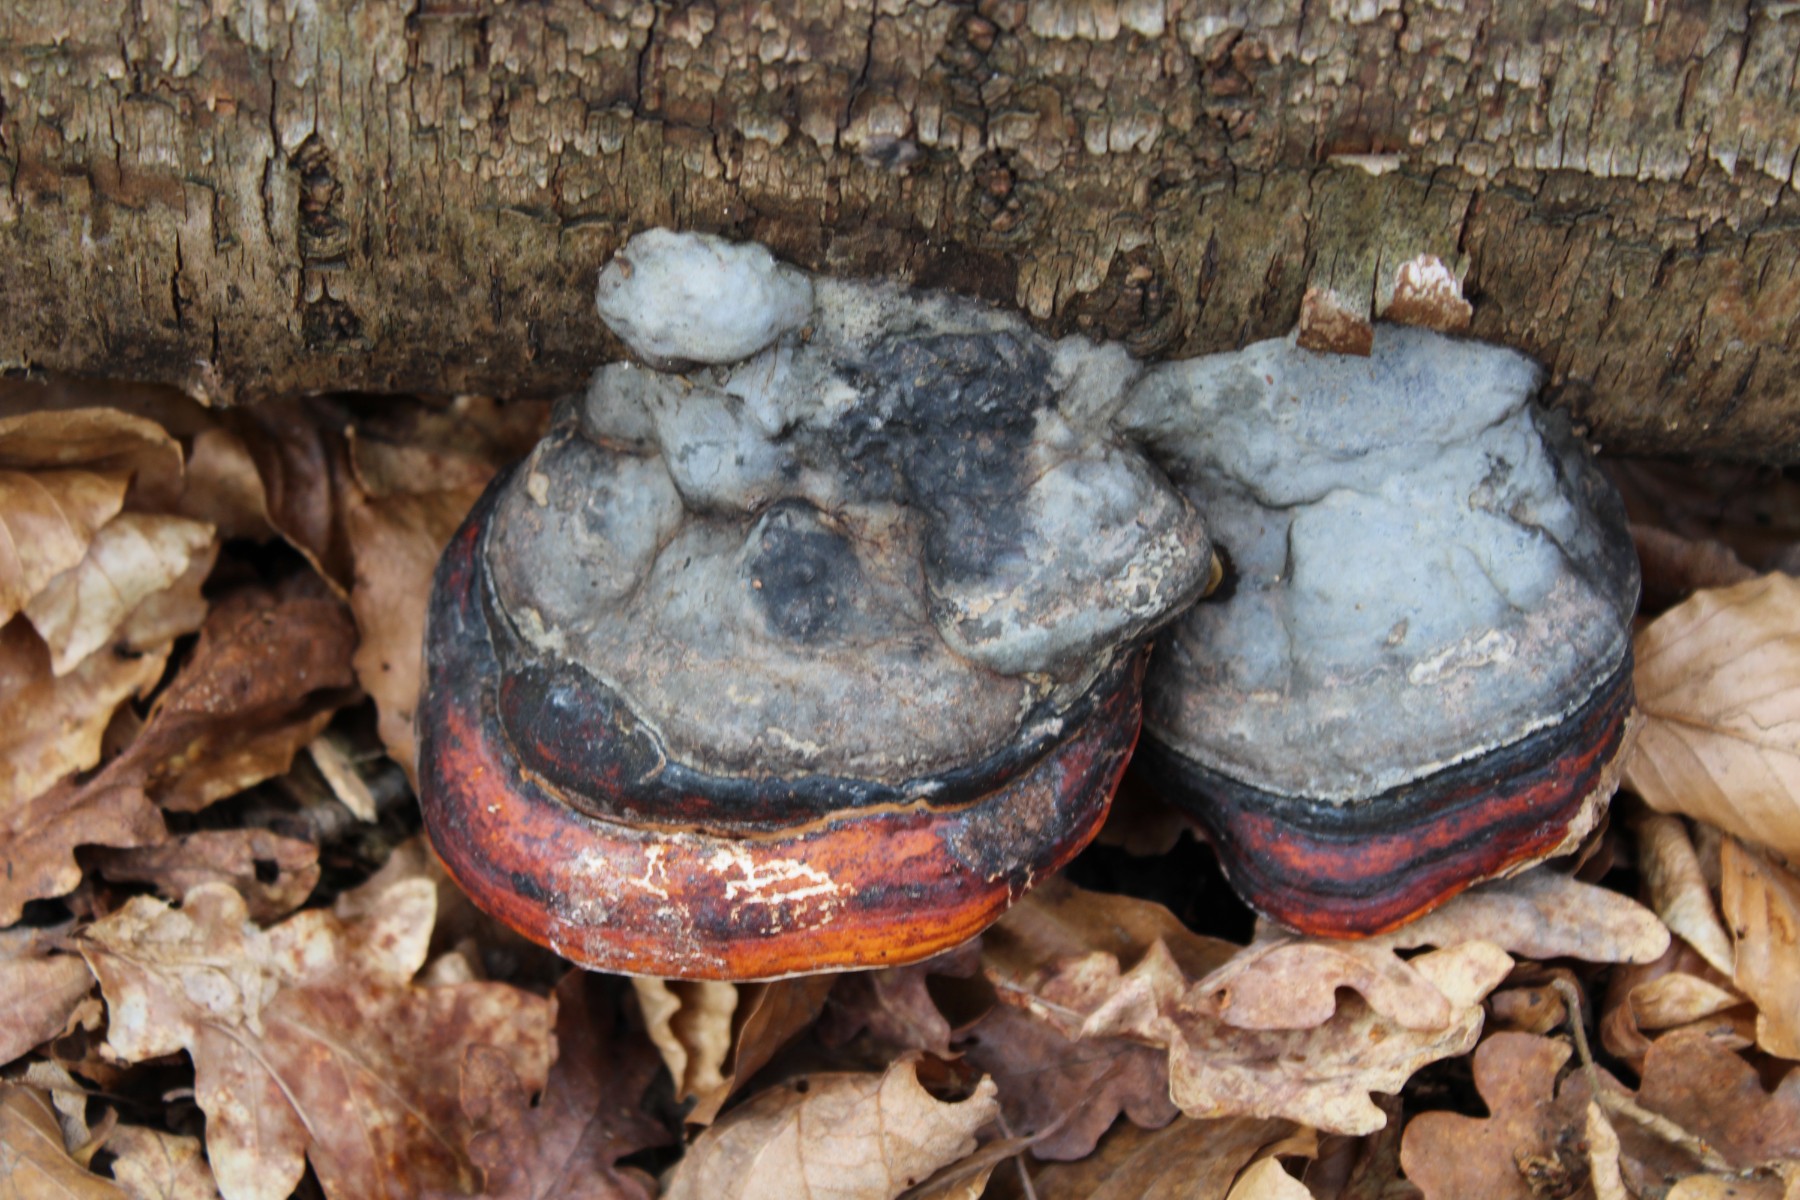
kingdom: Fungi
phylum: Basidiomycota
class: Agaricomycetes
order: Polyporales
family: Fomitopsidaceae
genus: Fomitopsis
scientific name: Fomitopsis pinicola
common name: randbæltet hovporesvamp
